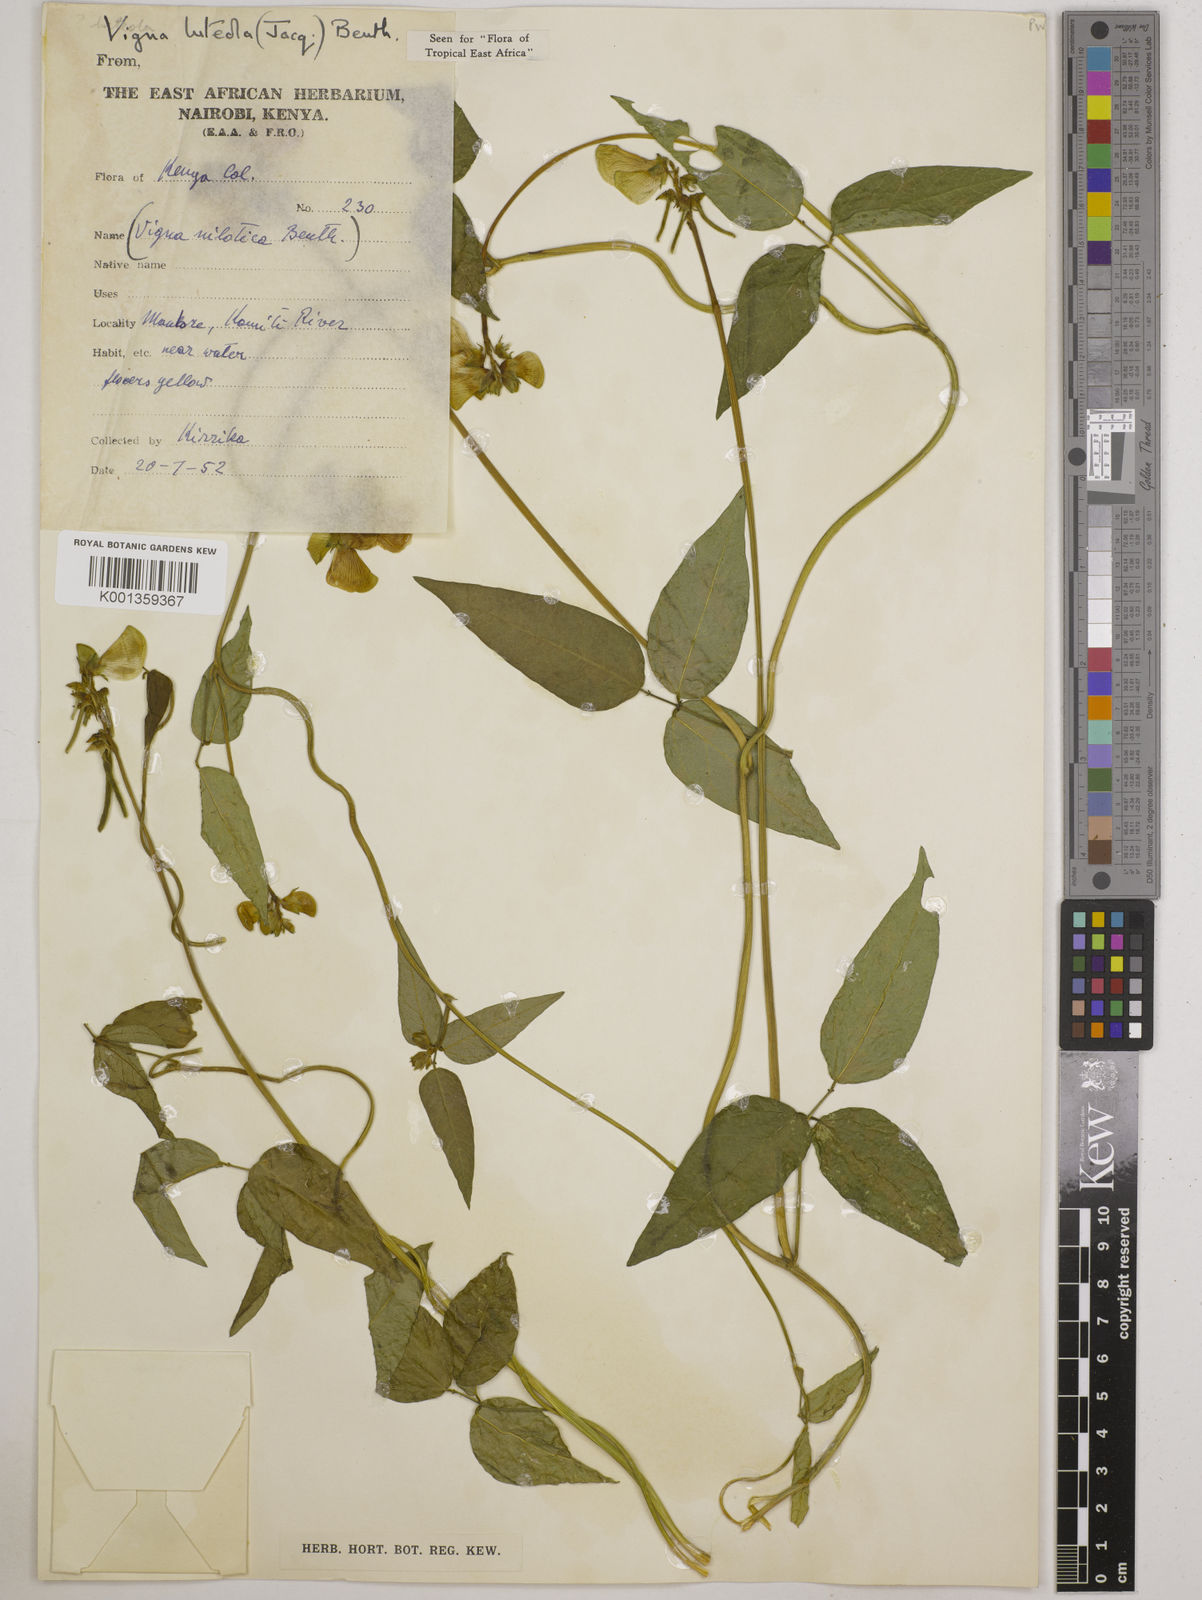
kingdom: Plantae
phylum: Tracheophyta
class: Magnoliopsida
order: Fabales
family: Fabaceae
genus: Vigna
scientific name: Vigna luteola
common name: Hairypod cowpea
